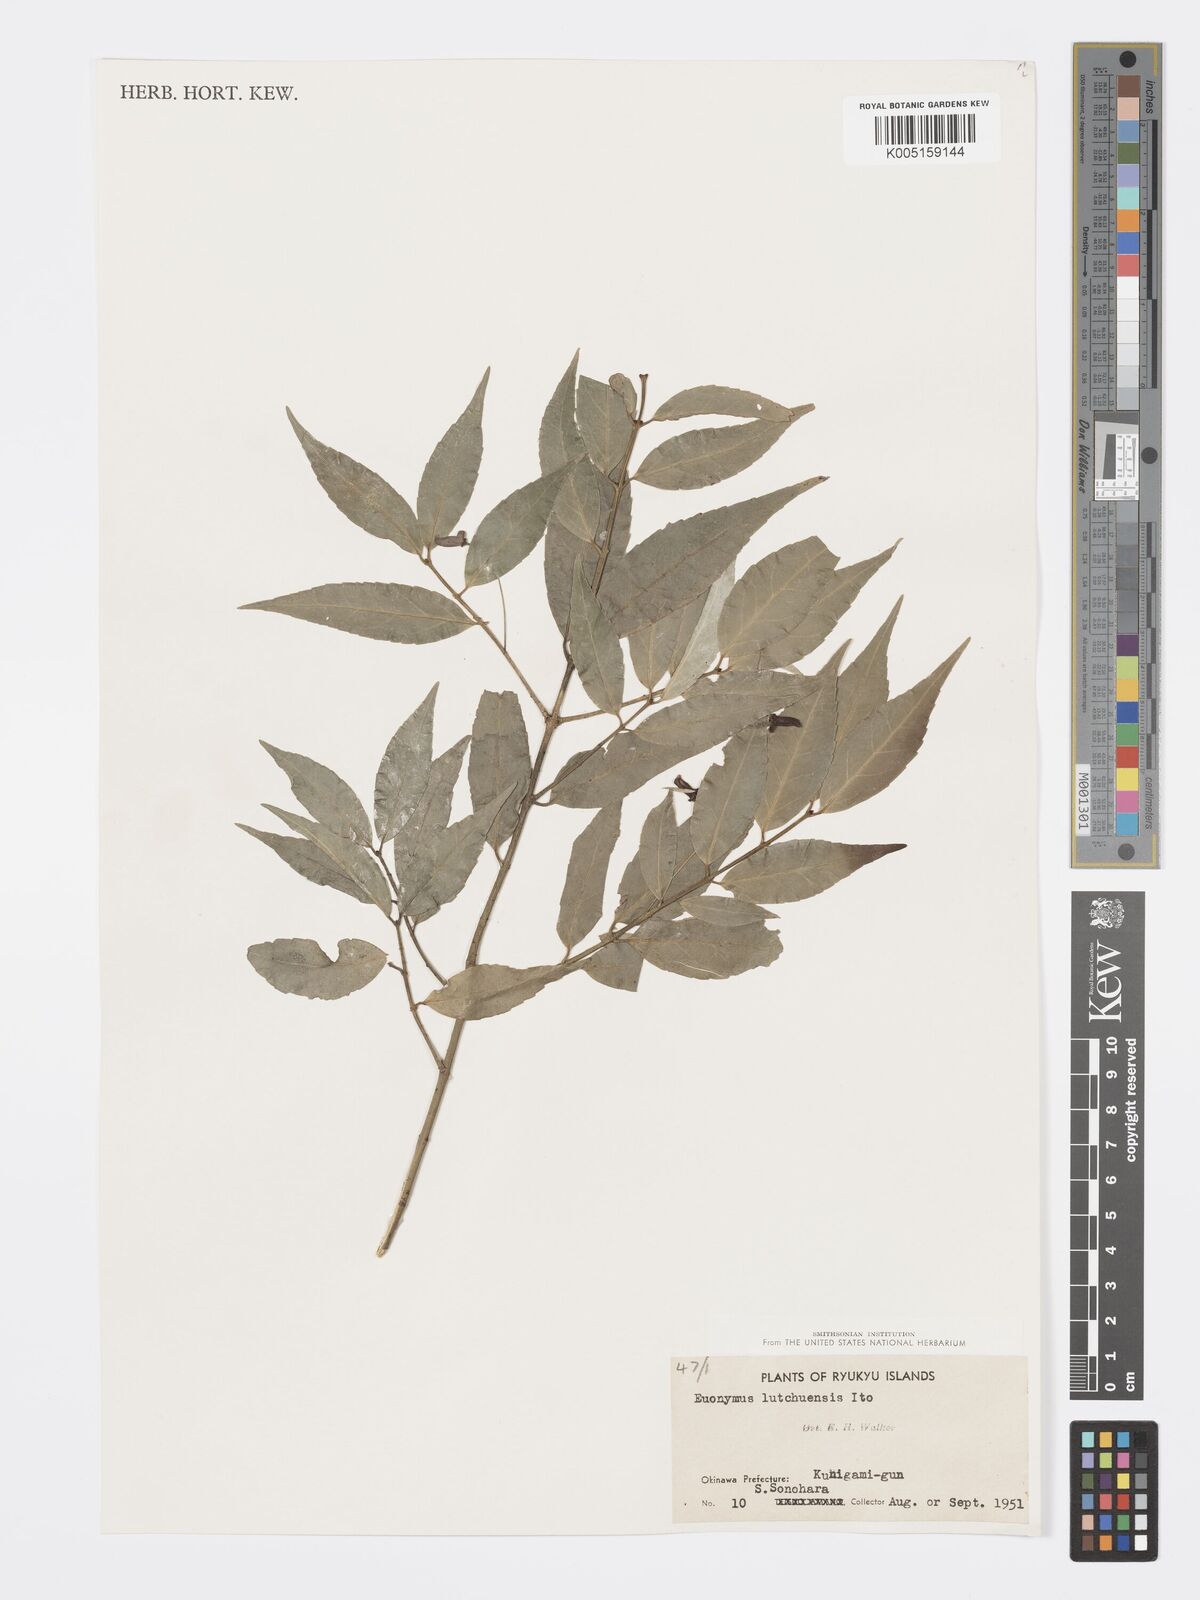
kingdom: Plantae
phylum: Tracheophyta
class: Magnoliopsida
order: Celastrales
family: Celastraceae
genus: Euonymus
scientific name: Euonymus lutchuensis
